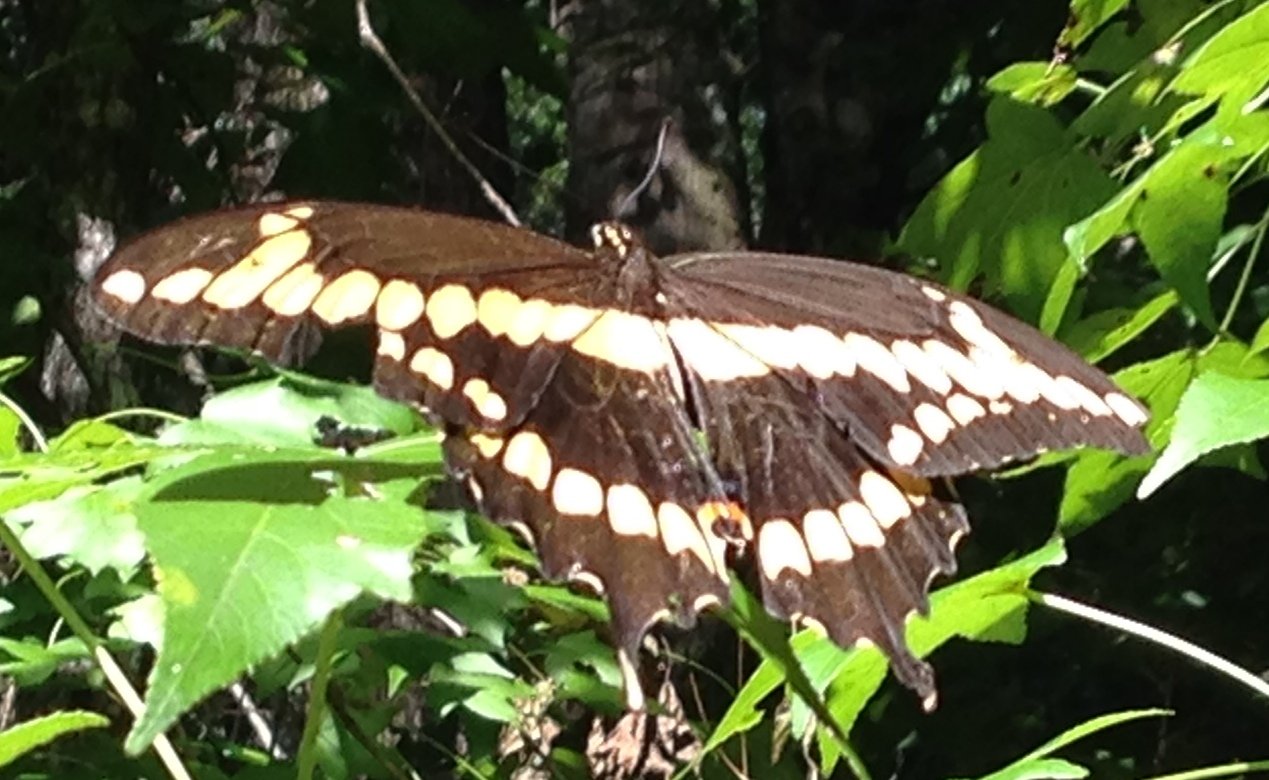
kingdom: Animalia
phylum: Arthropoda
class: Insecta
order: Lepidoptera
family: Papilionidae
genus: Papilio
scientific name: Papilio cresphontes
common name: Eastern Giant Swallowtail
